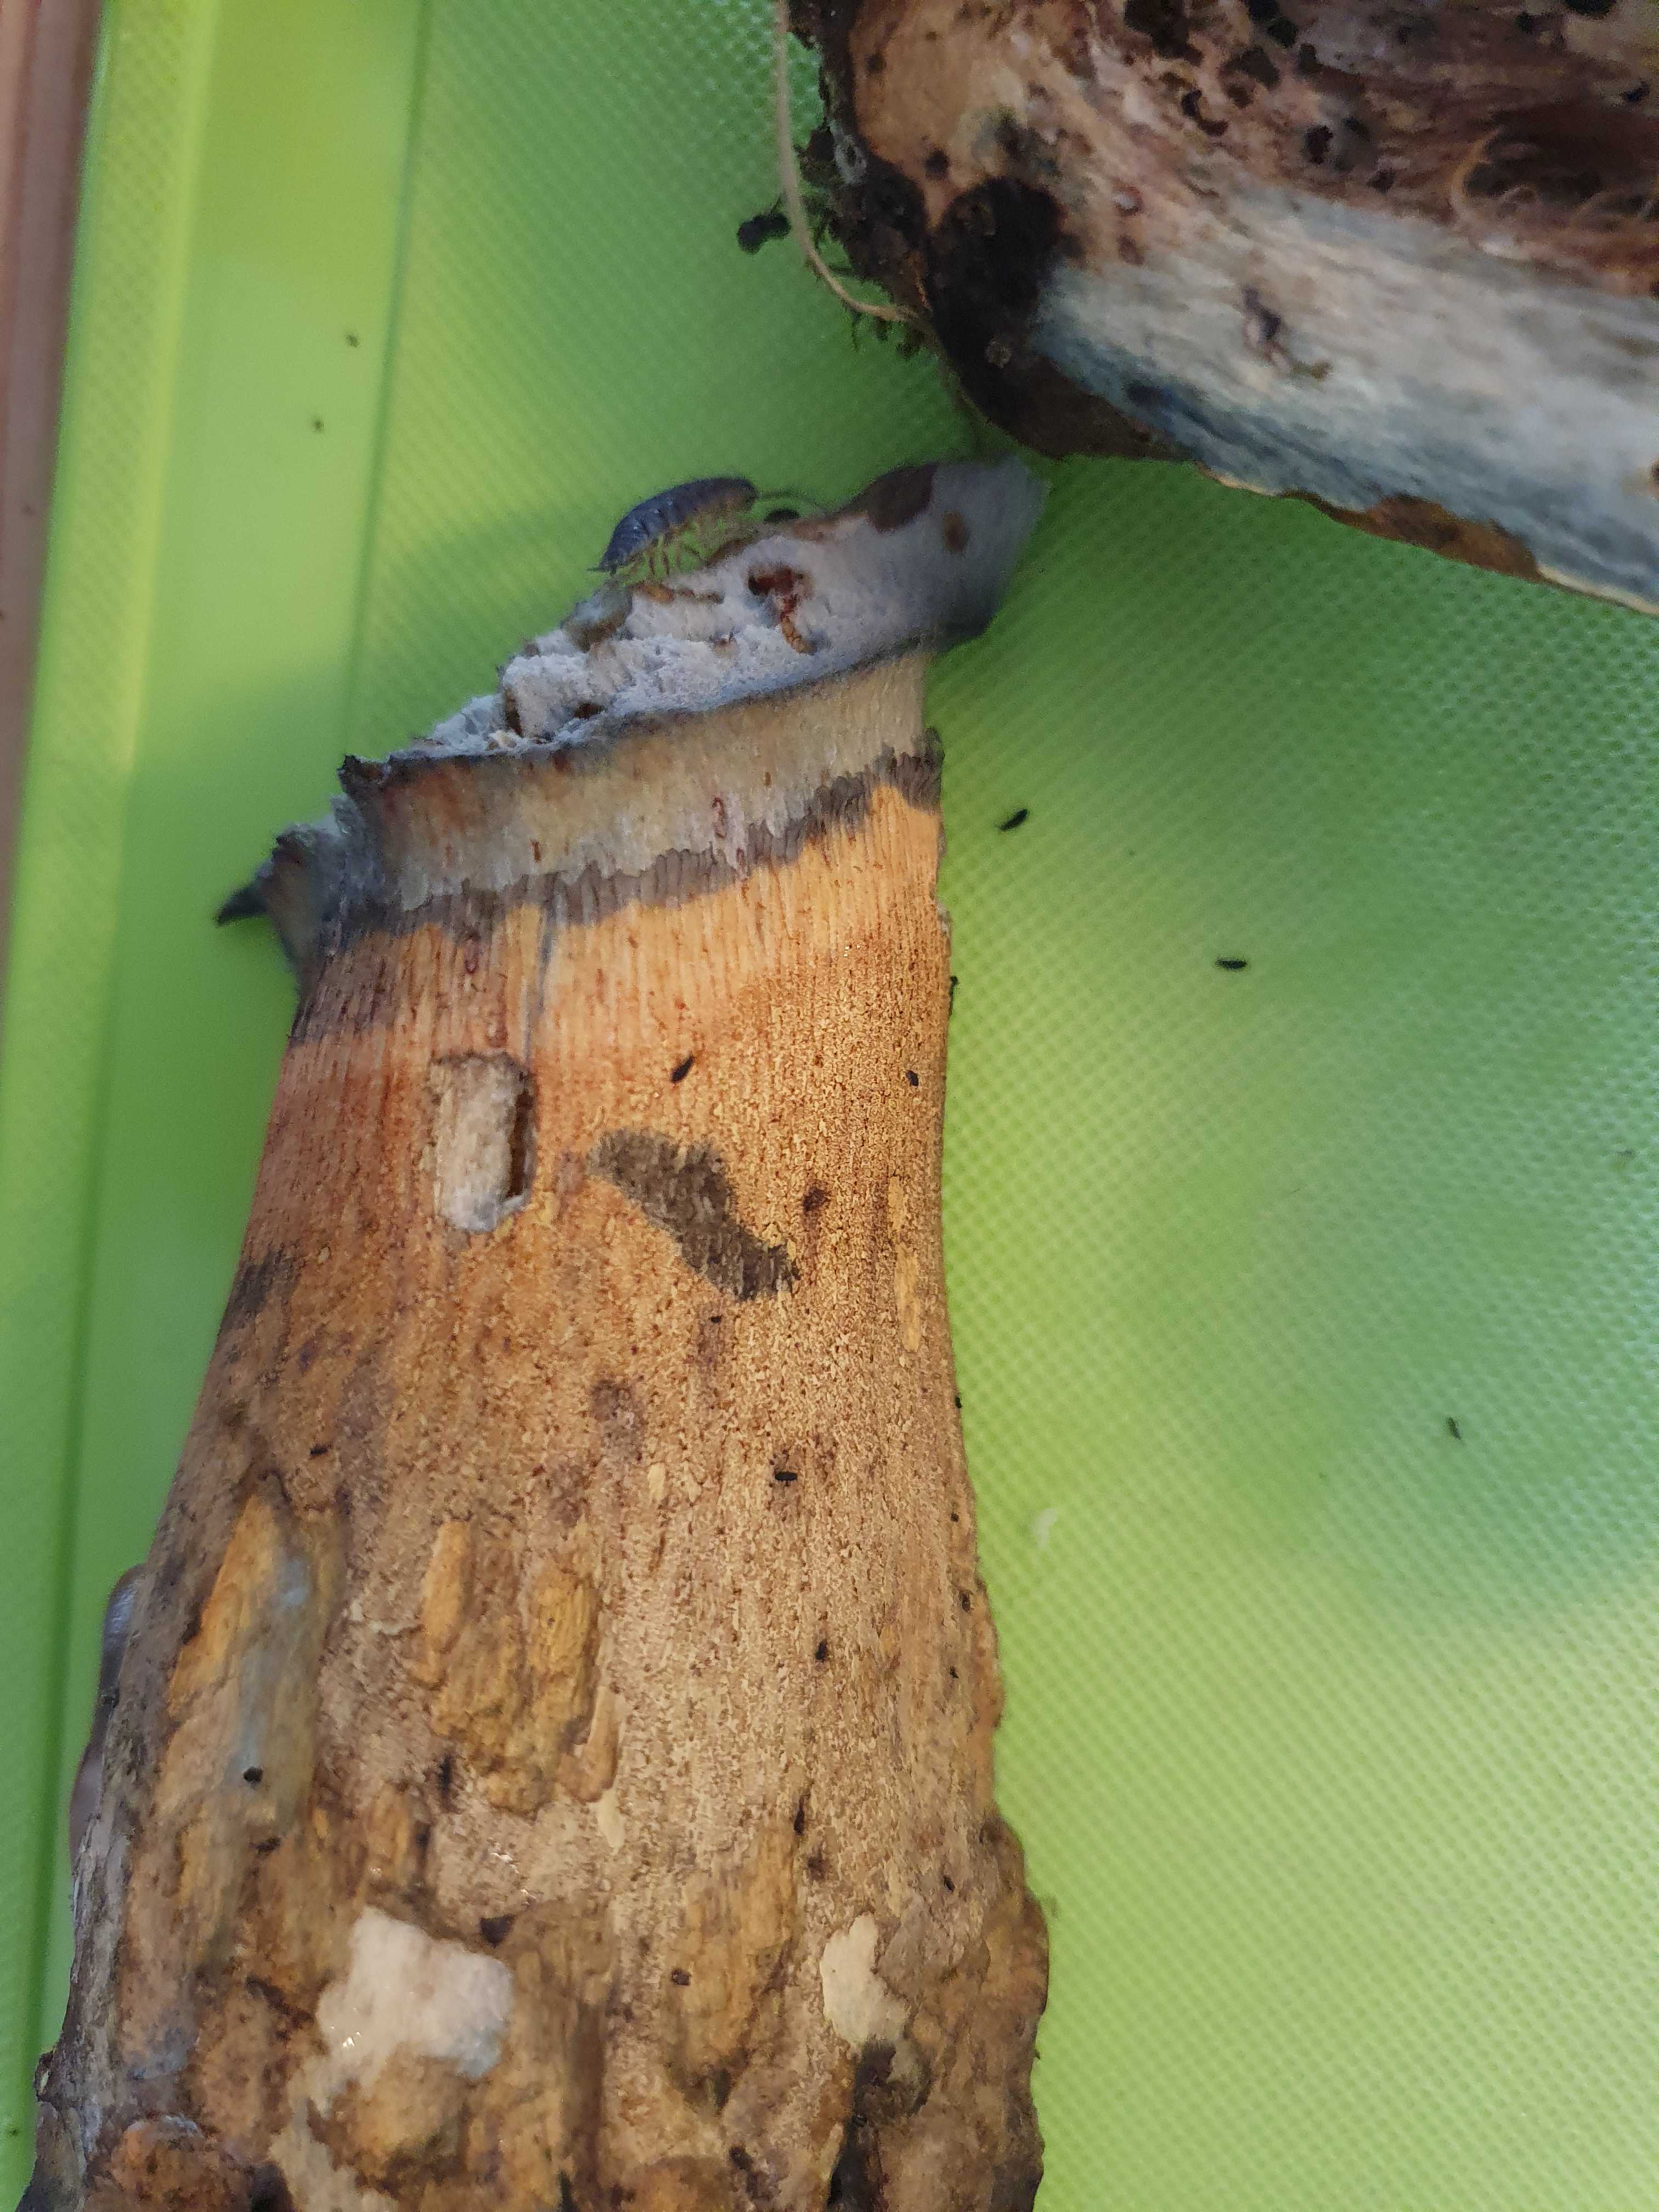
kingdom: Fungi
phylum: Basidiomycota
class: Agaricomycetes
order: Boletales
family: Boletaceae
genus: Suillellus
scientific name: Suillellus luridus
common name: netstokket indigorørhat
